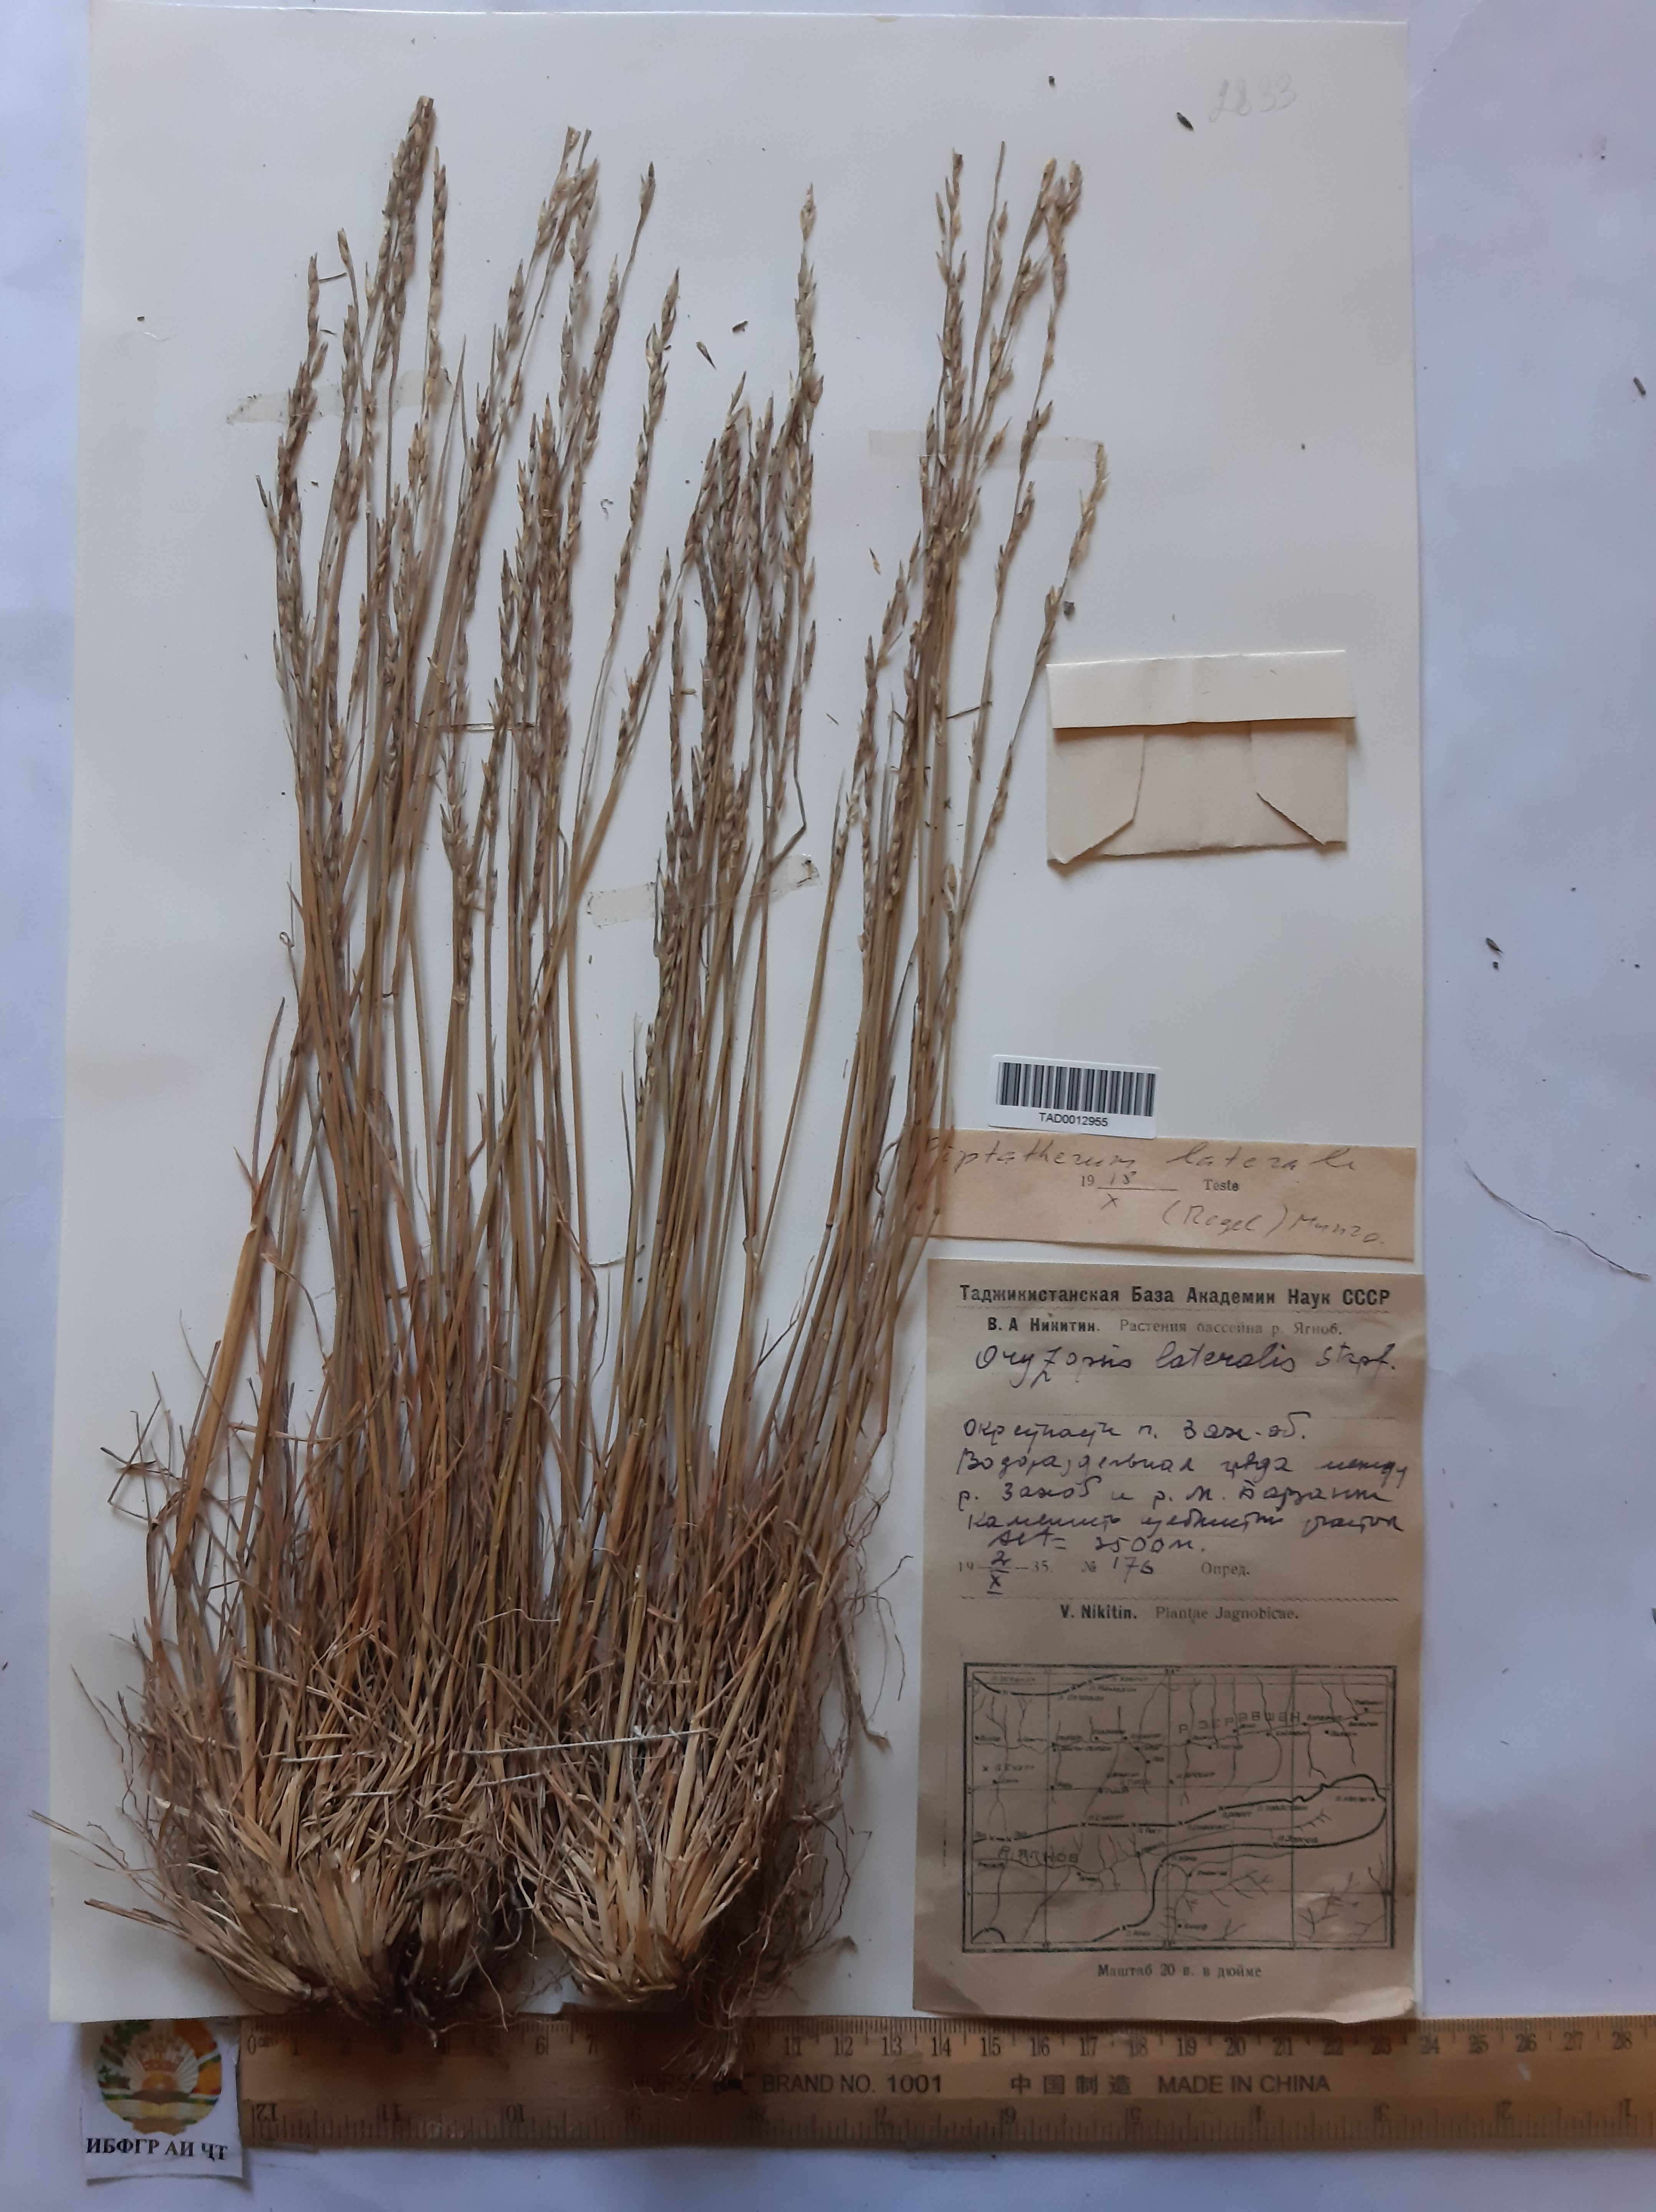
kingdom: Plantae
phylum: Tracheophyta
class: Liliopsida
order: Poales
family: Poaceae
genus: Piptatherum
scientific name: Piptatherum laterale
